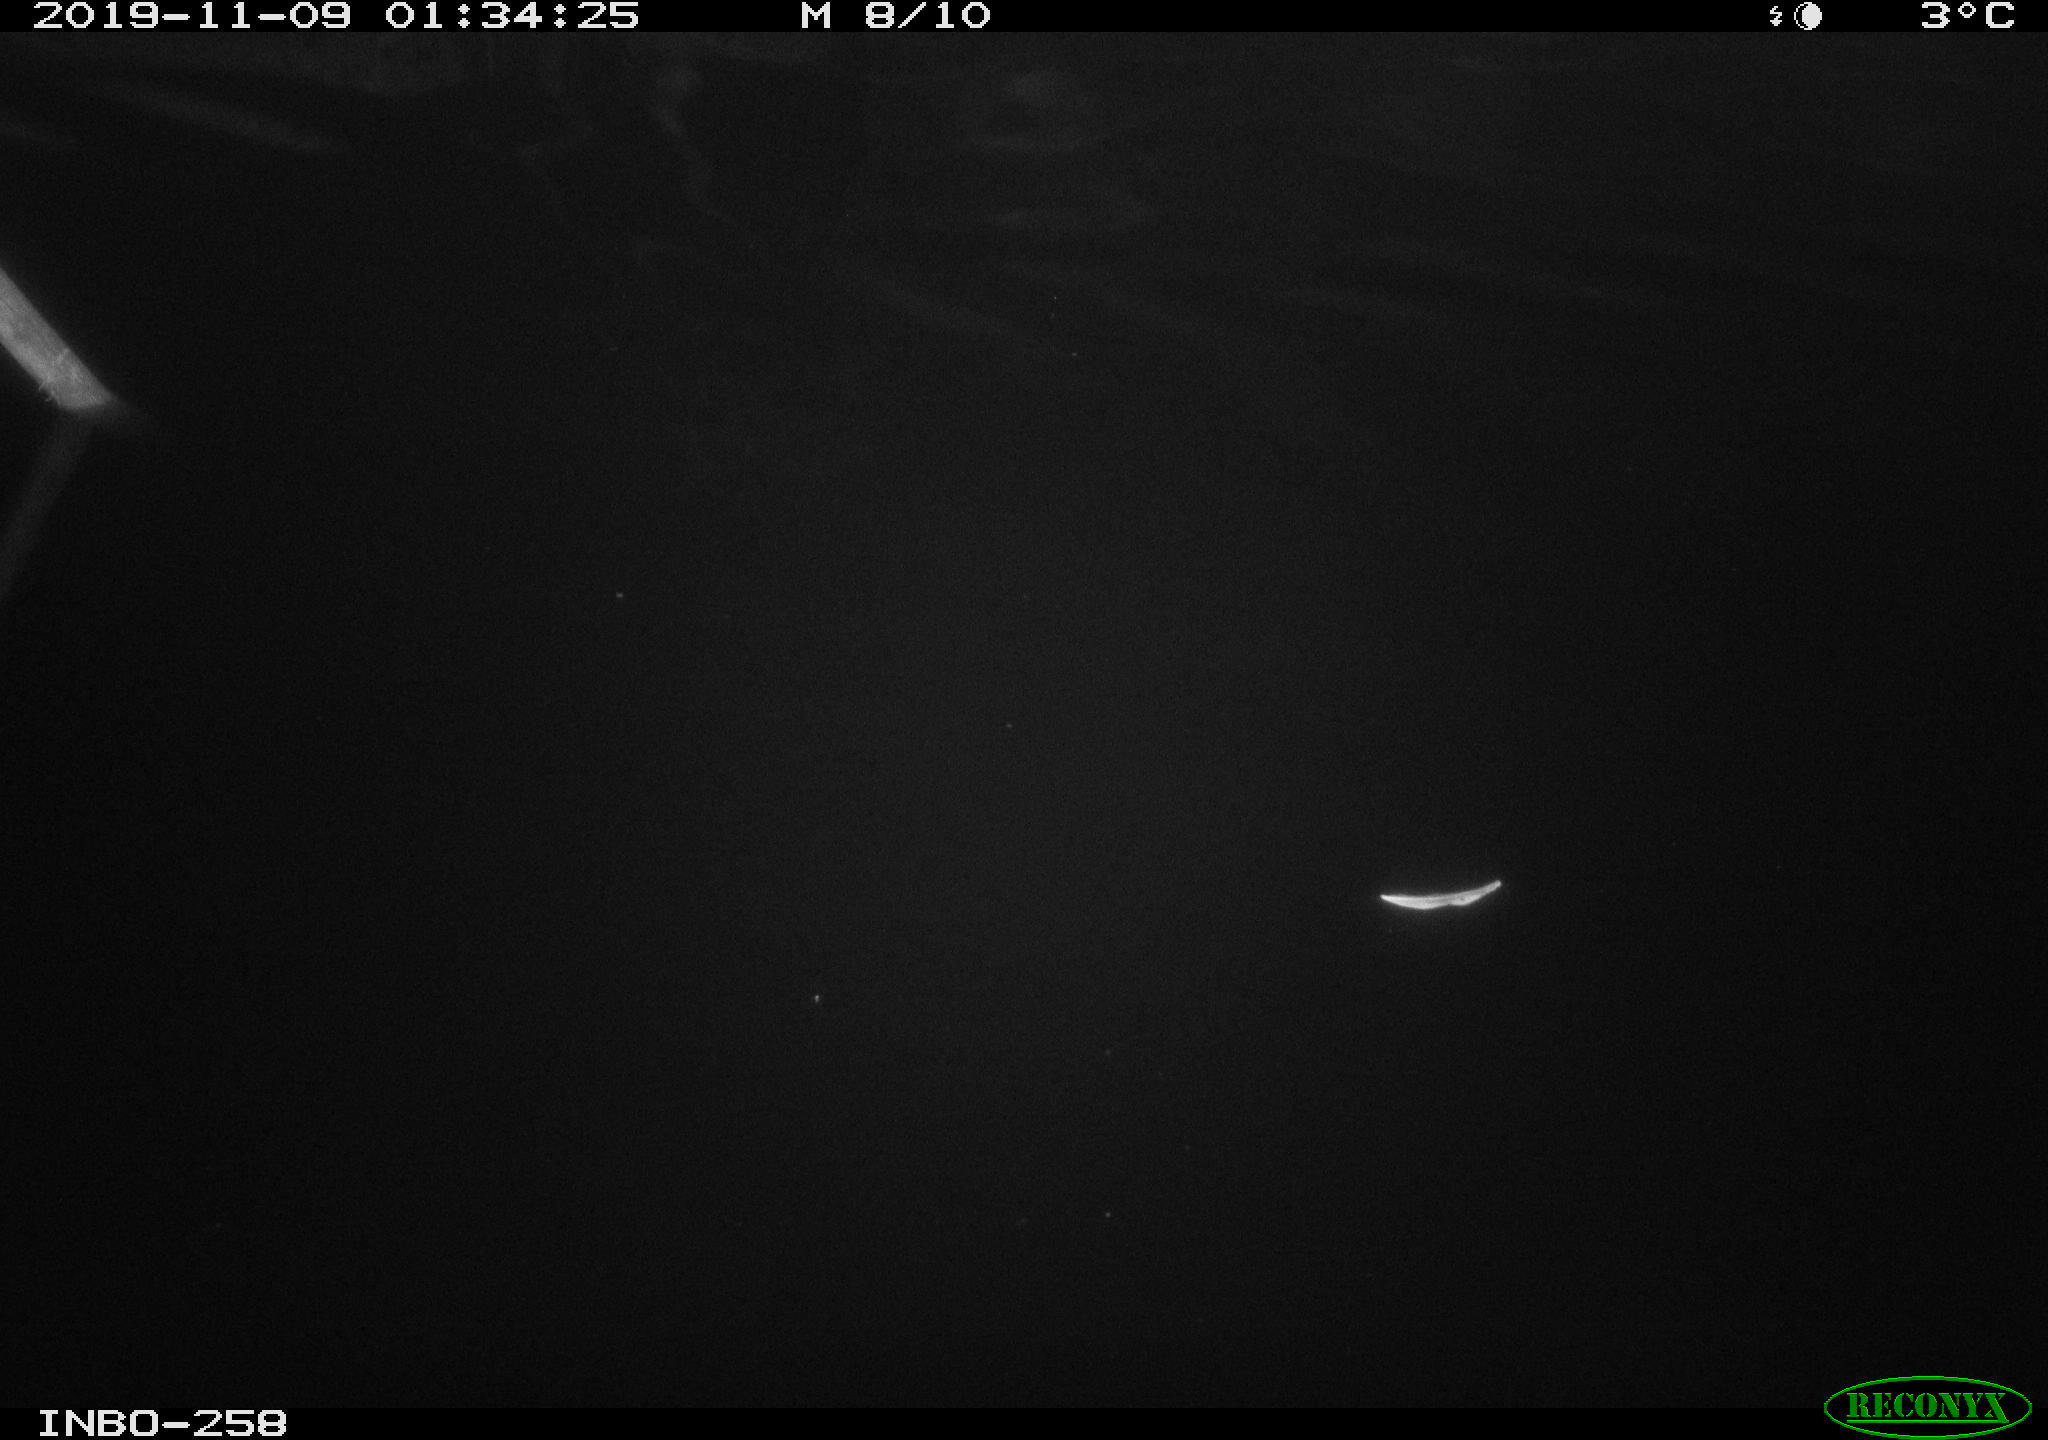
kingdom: Animalia
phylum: Chordata
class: Aves
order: Anseriformes
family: Anatidae
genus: Anas
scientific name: Anas platyrhynchos
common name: Mallard
